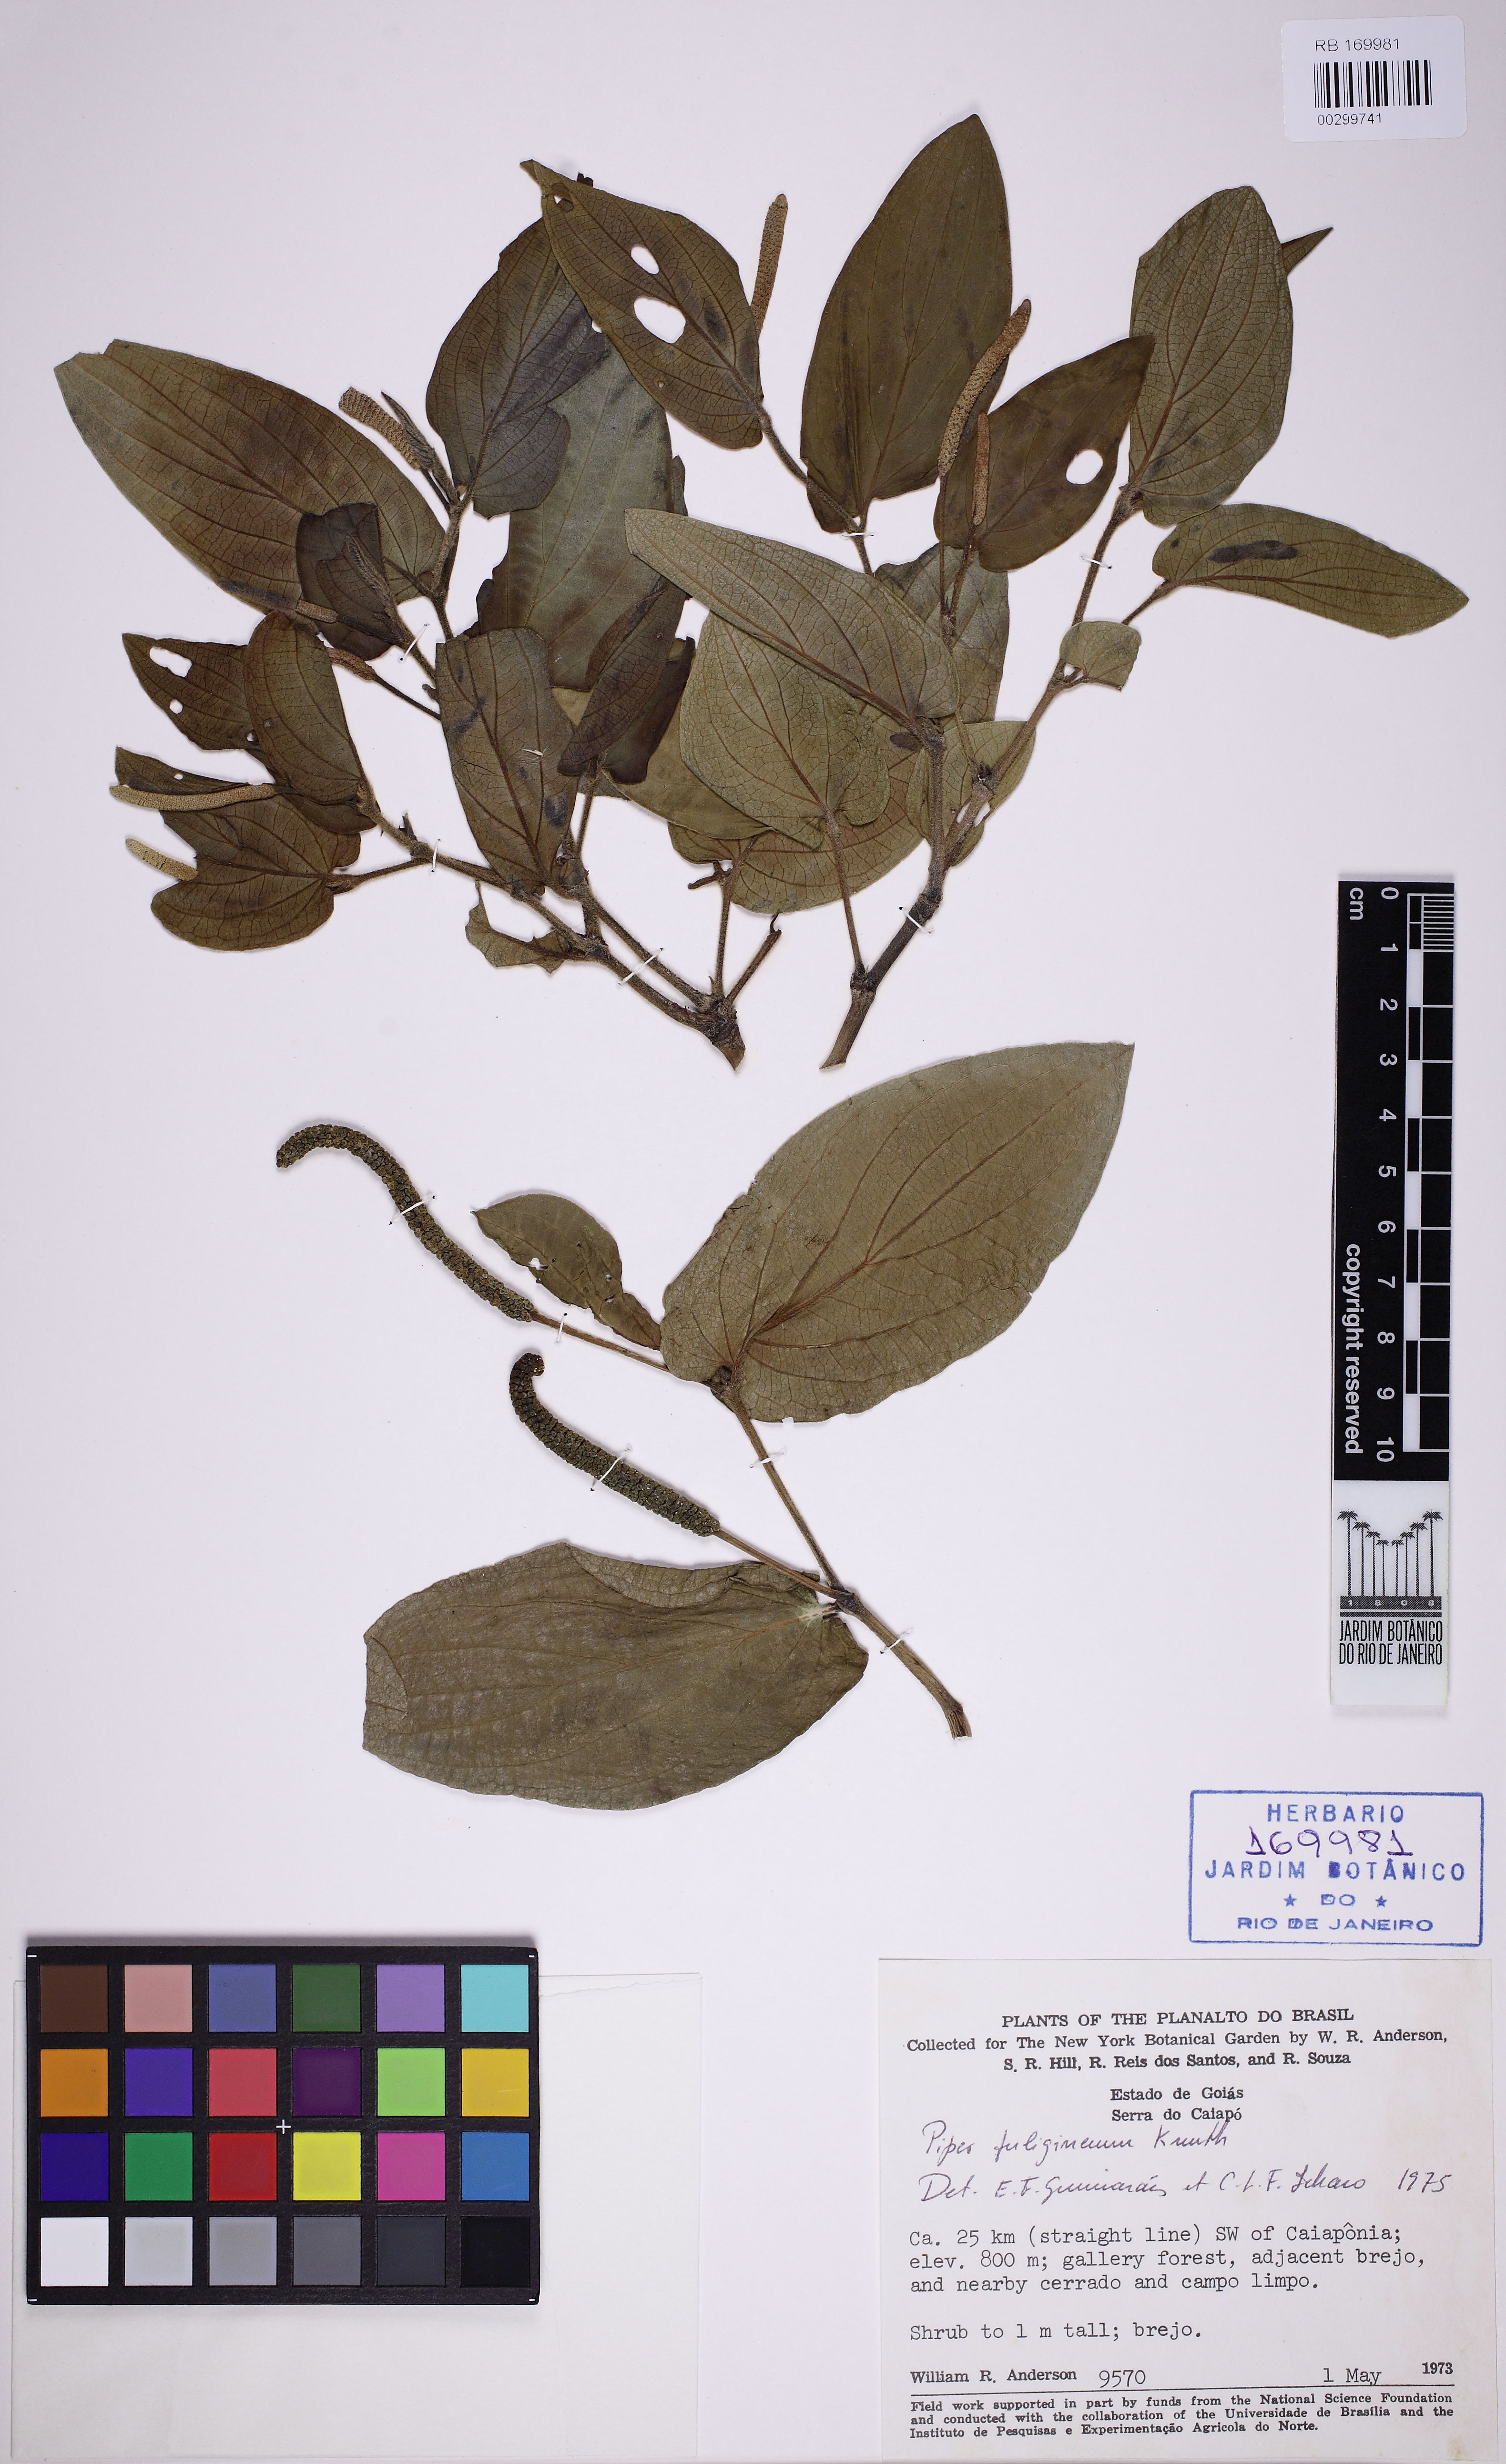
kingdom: Plantae
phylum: Tracheophyta
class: Magnoliopsida
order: Piperales
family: Piperaceae
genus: Piper
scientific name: Piper fuligineum
